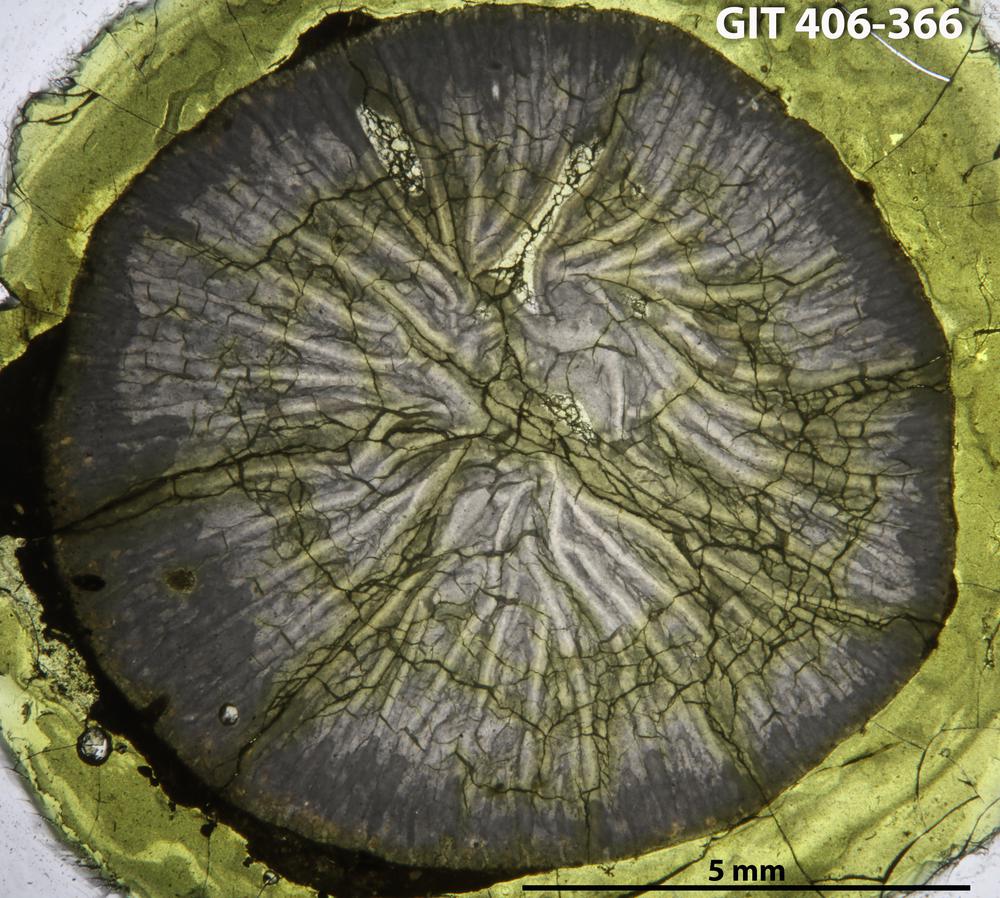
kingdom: Animalia
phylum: Cnidaria
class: Anthozoa
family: Streptelasmatidae
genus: Streptelasma
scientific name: Streptelasma
